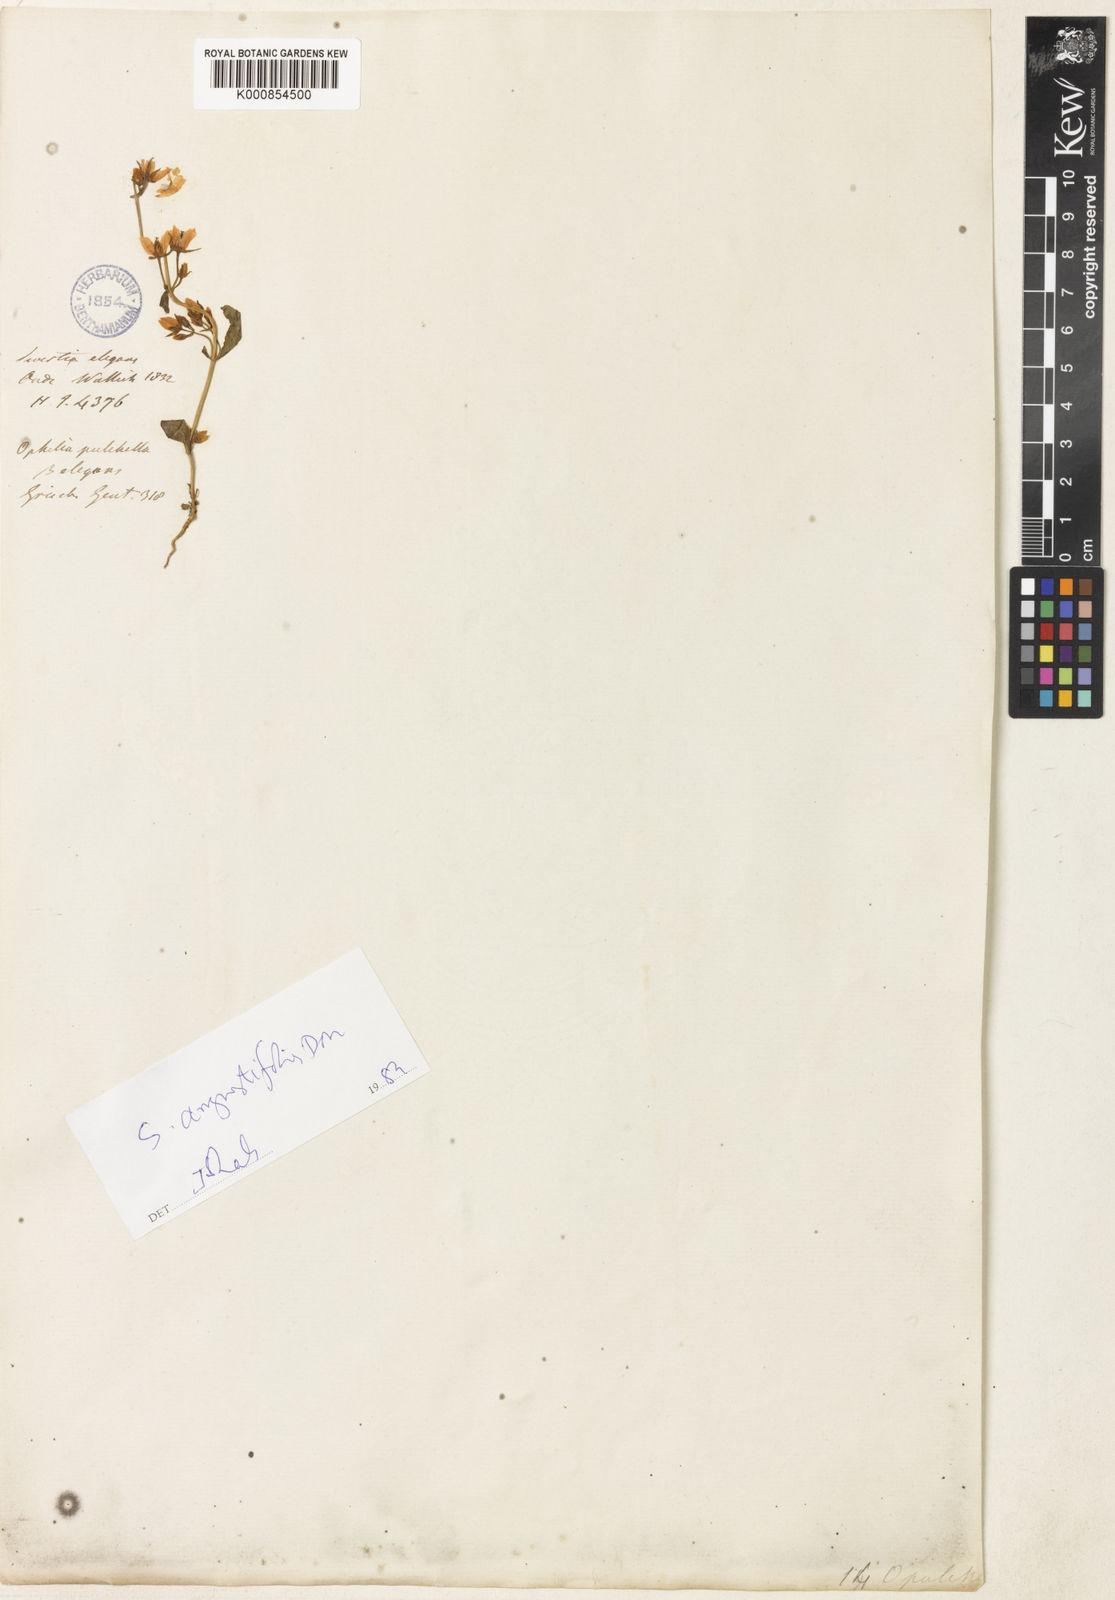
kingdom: Plantae
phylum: Tracheophyta
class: Magnoliopsida
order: Gentianales
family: Gentianaceae
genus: Swertia
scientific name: Swertia
